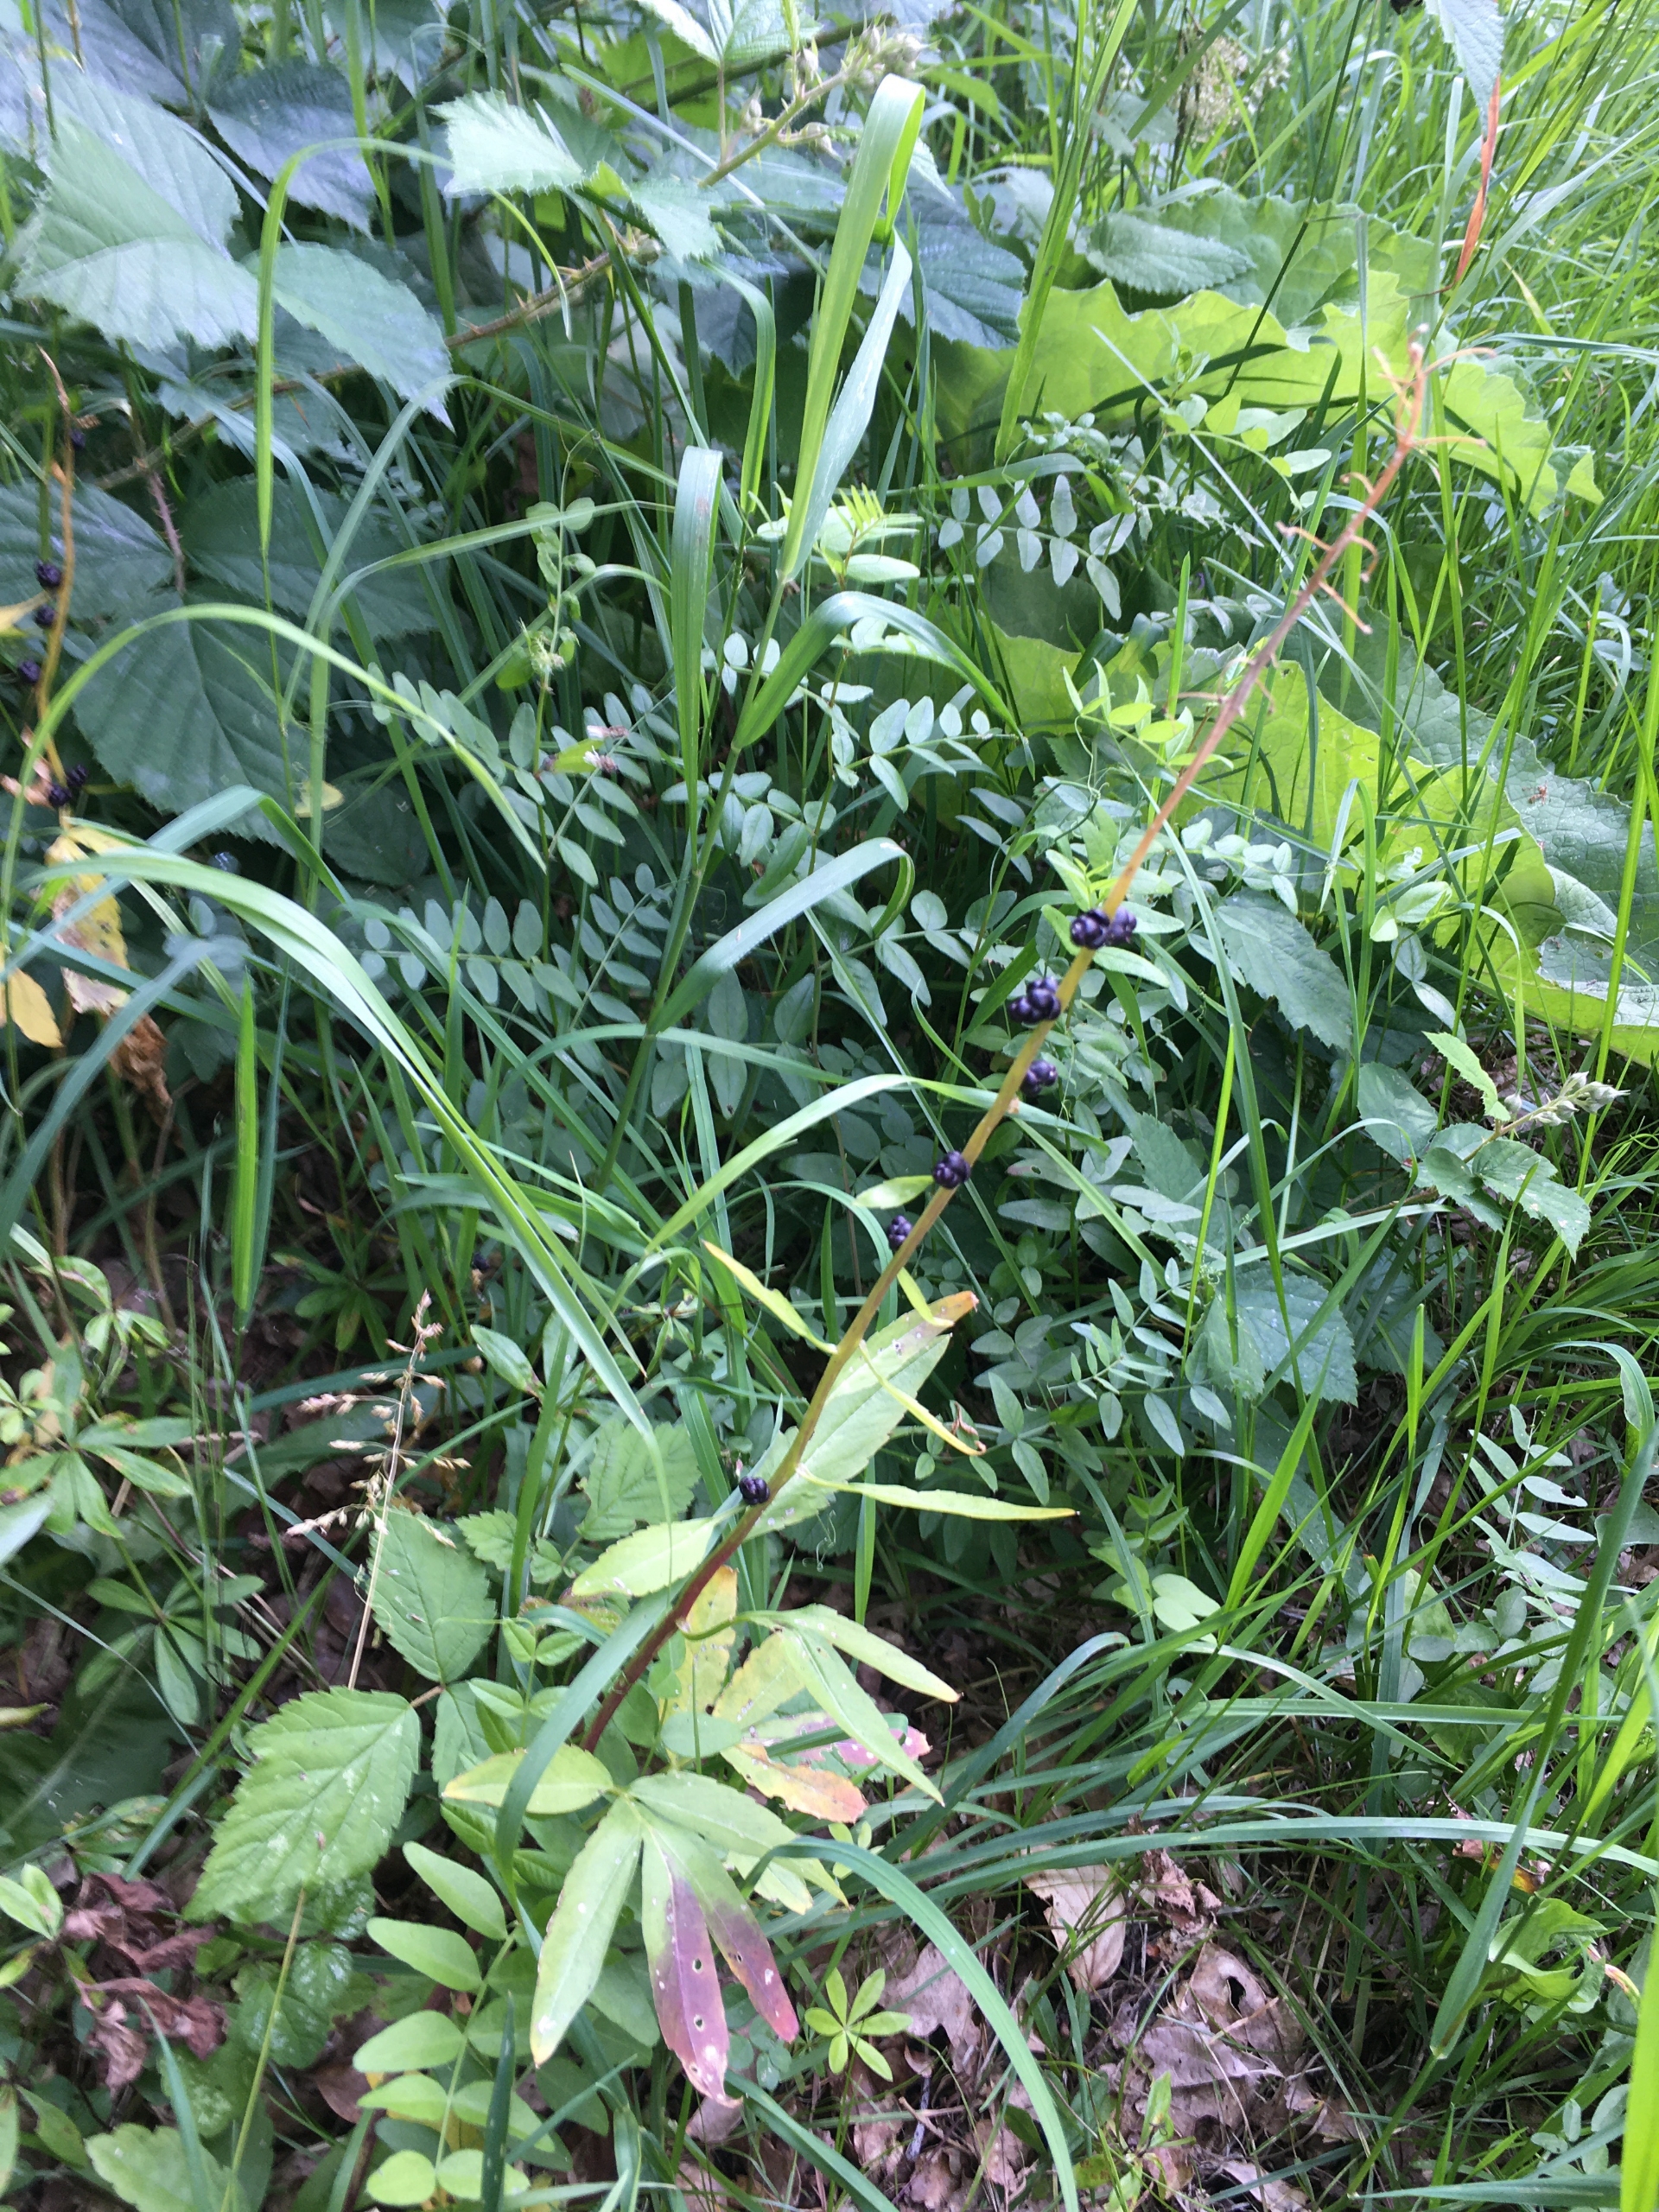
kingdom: Plantae
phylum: Tracheophyta
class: Magnoliopsida
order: Brassicales
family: Brassicaceae
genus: Cardamine
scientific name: Cardamine bulbifera
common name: Tandrod
